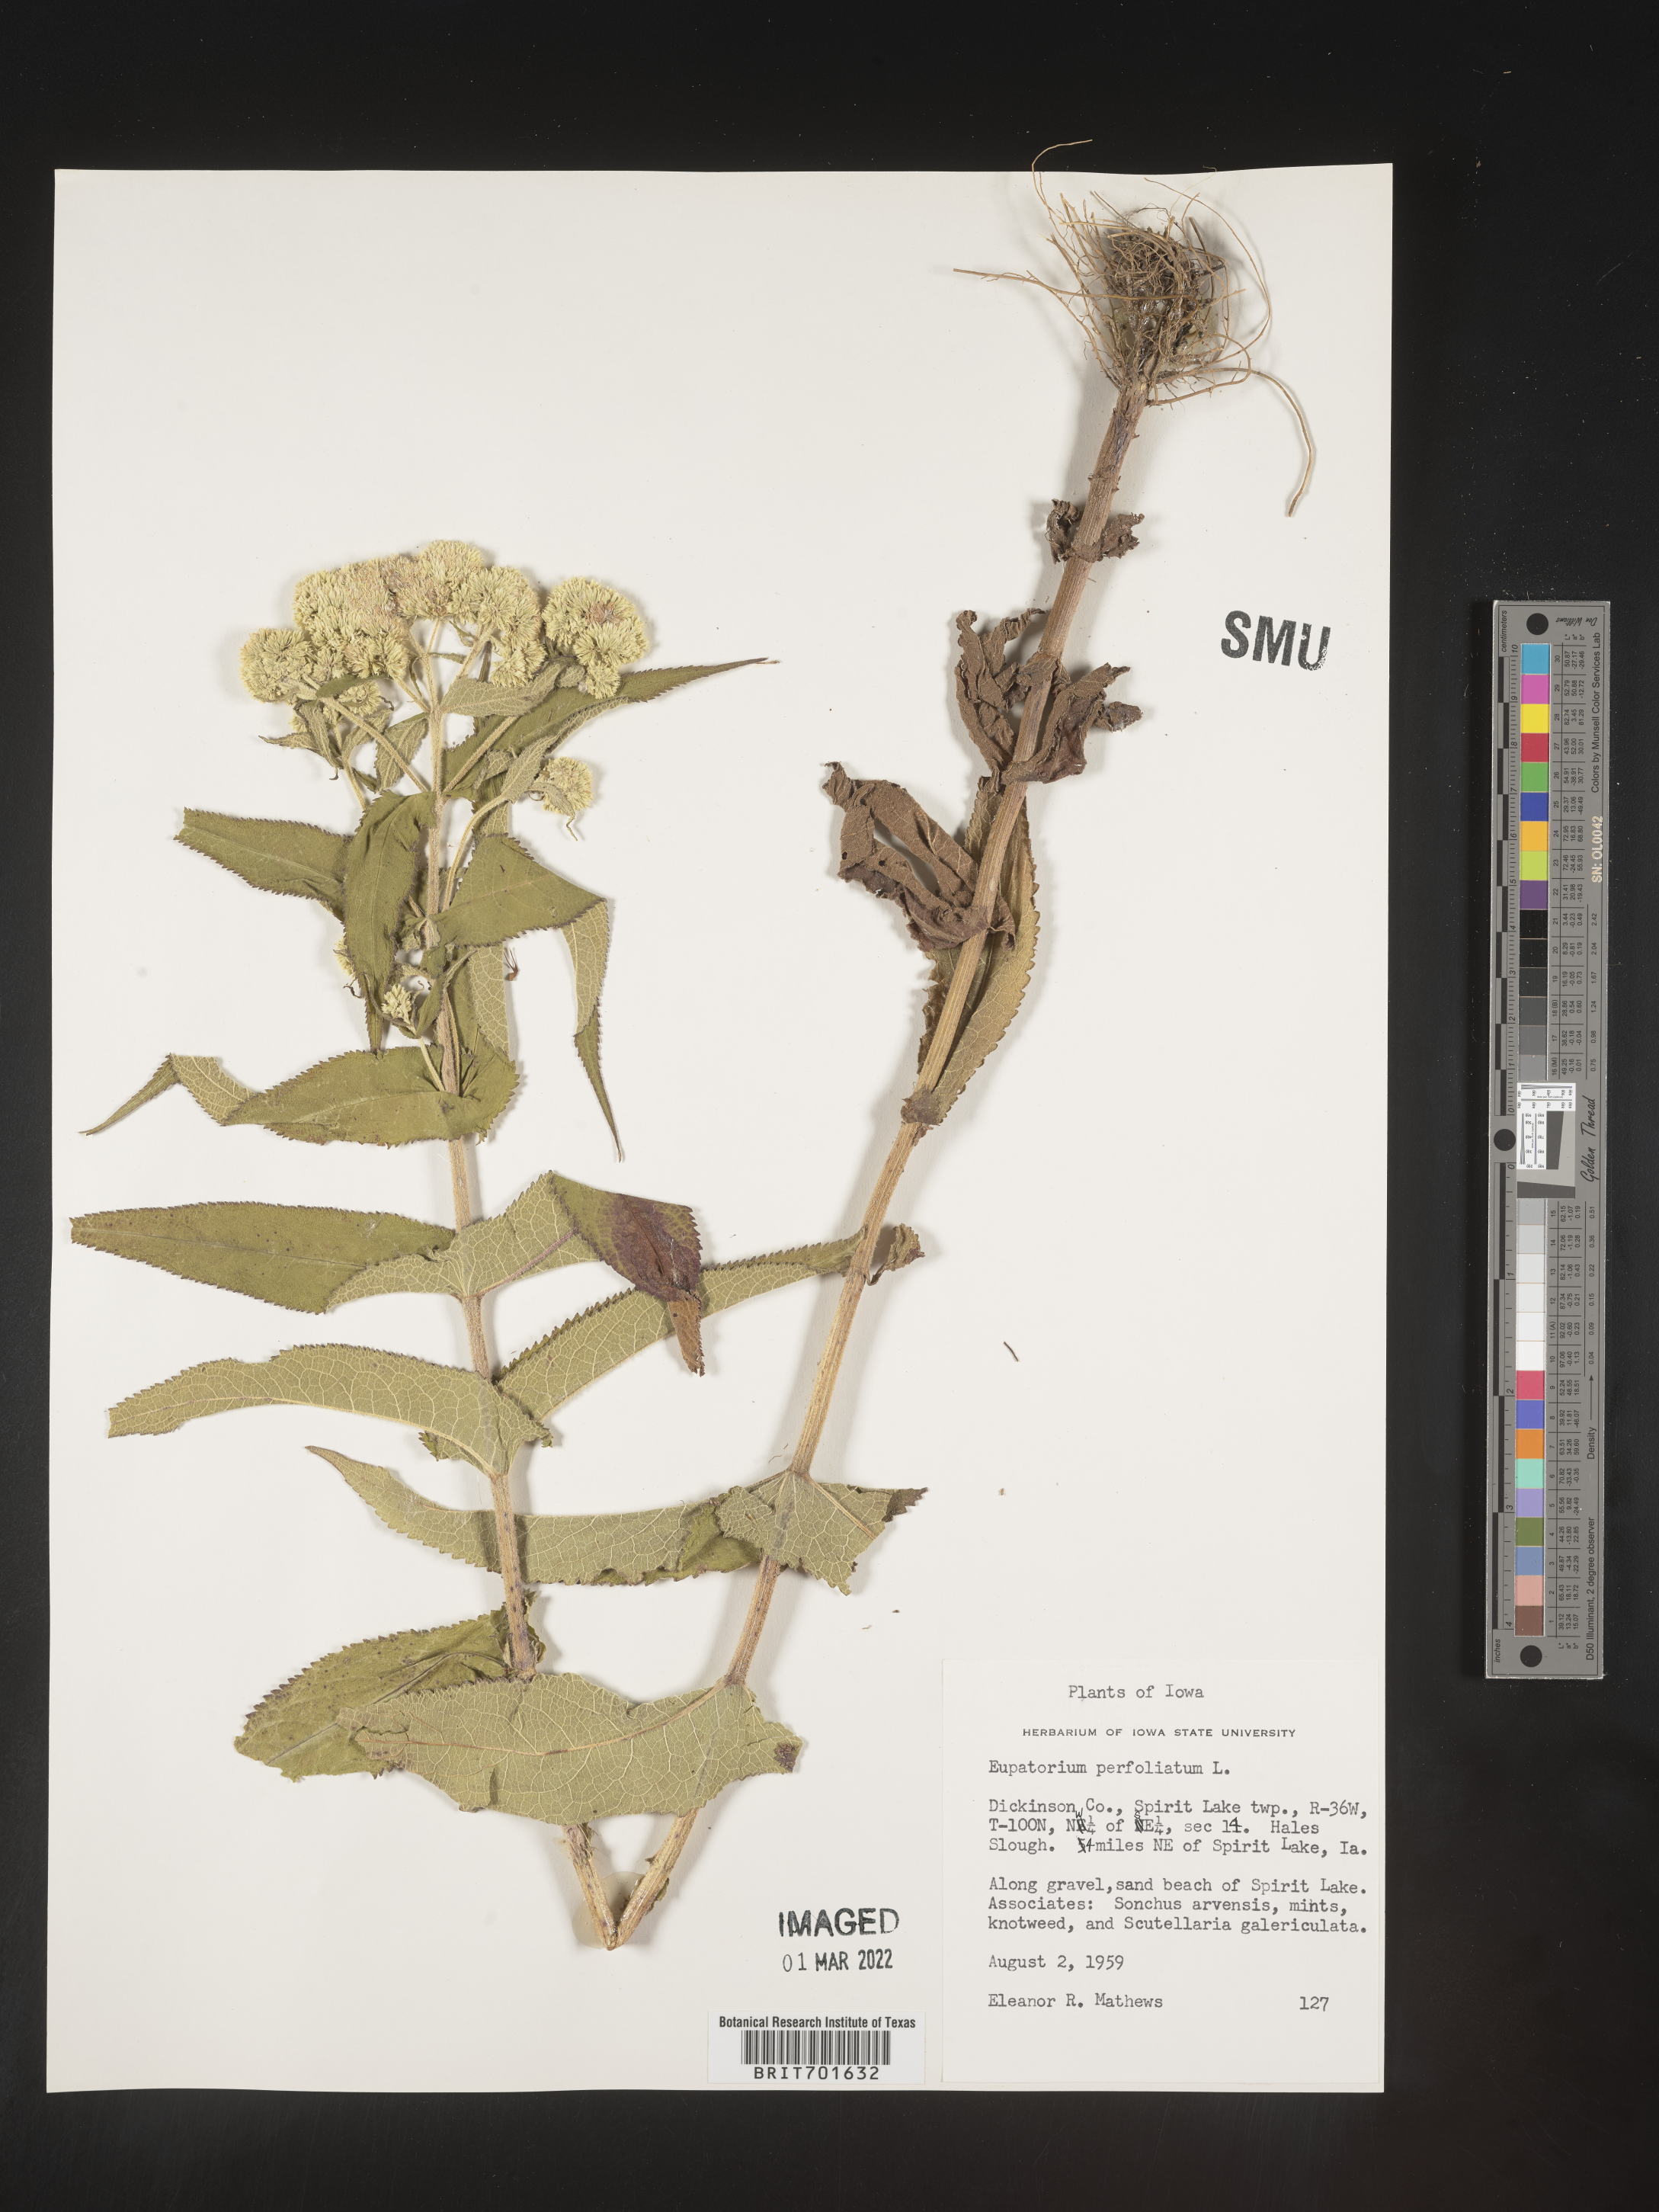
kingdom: Plantae
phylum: Tracheophyta
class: Magnoliopsida
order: Asterales
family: Asteraceae
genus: Eupatorium
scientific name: Eupatorium perfoliatum
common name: Boneset
